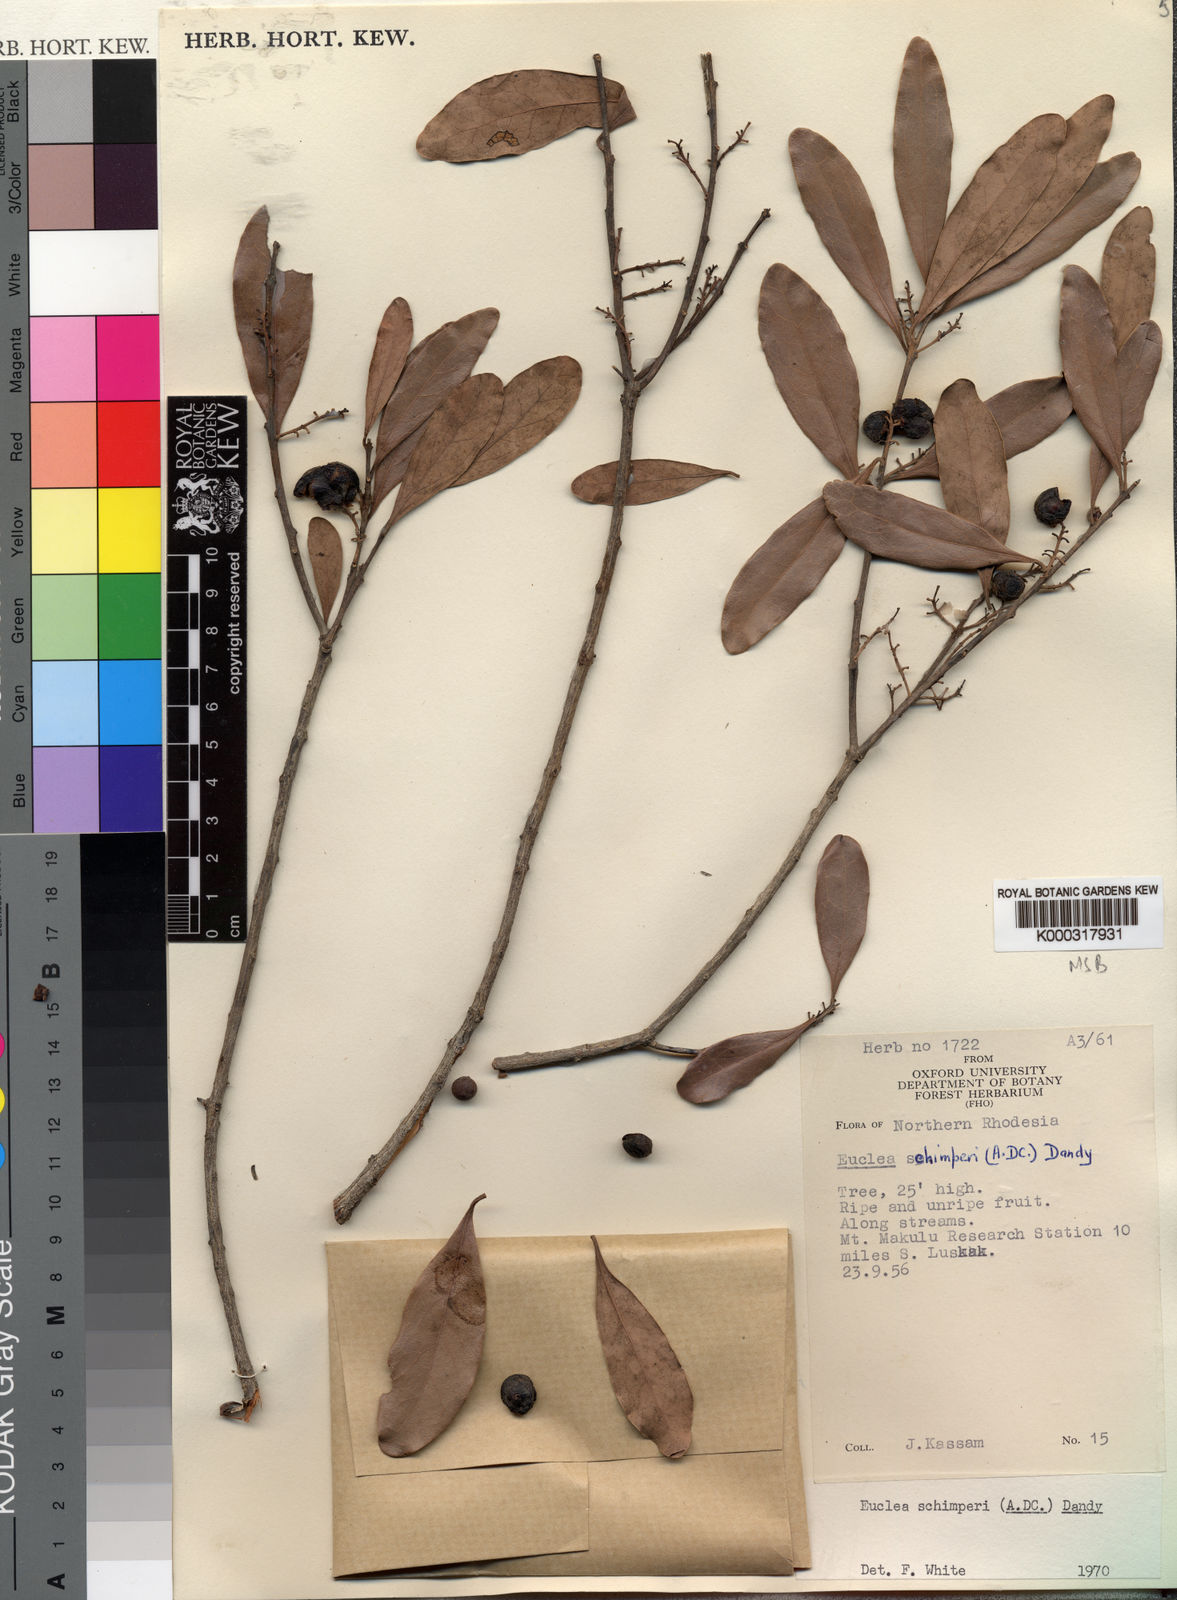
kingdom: Plantae
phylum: Tracheophyta
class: Magnoliopsida
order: Ericales
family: Ebenaceae
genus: Euclea
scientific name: Euclea racemosa
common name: Dune guarri
